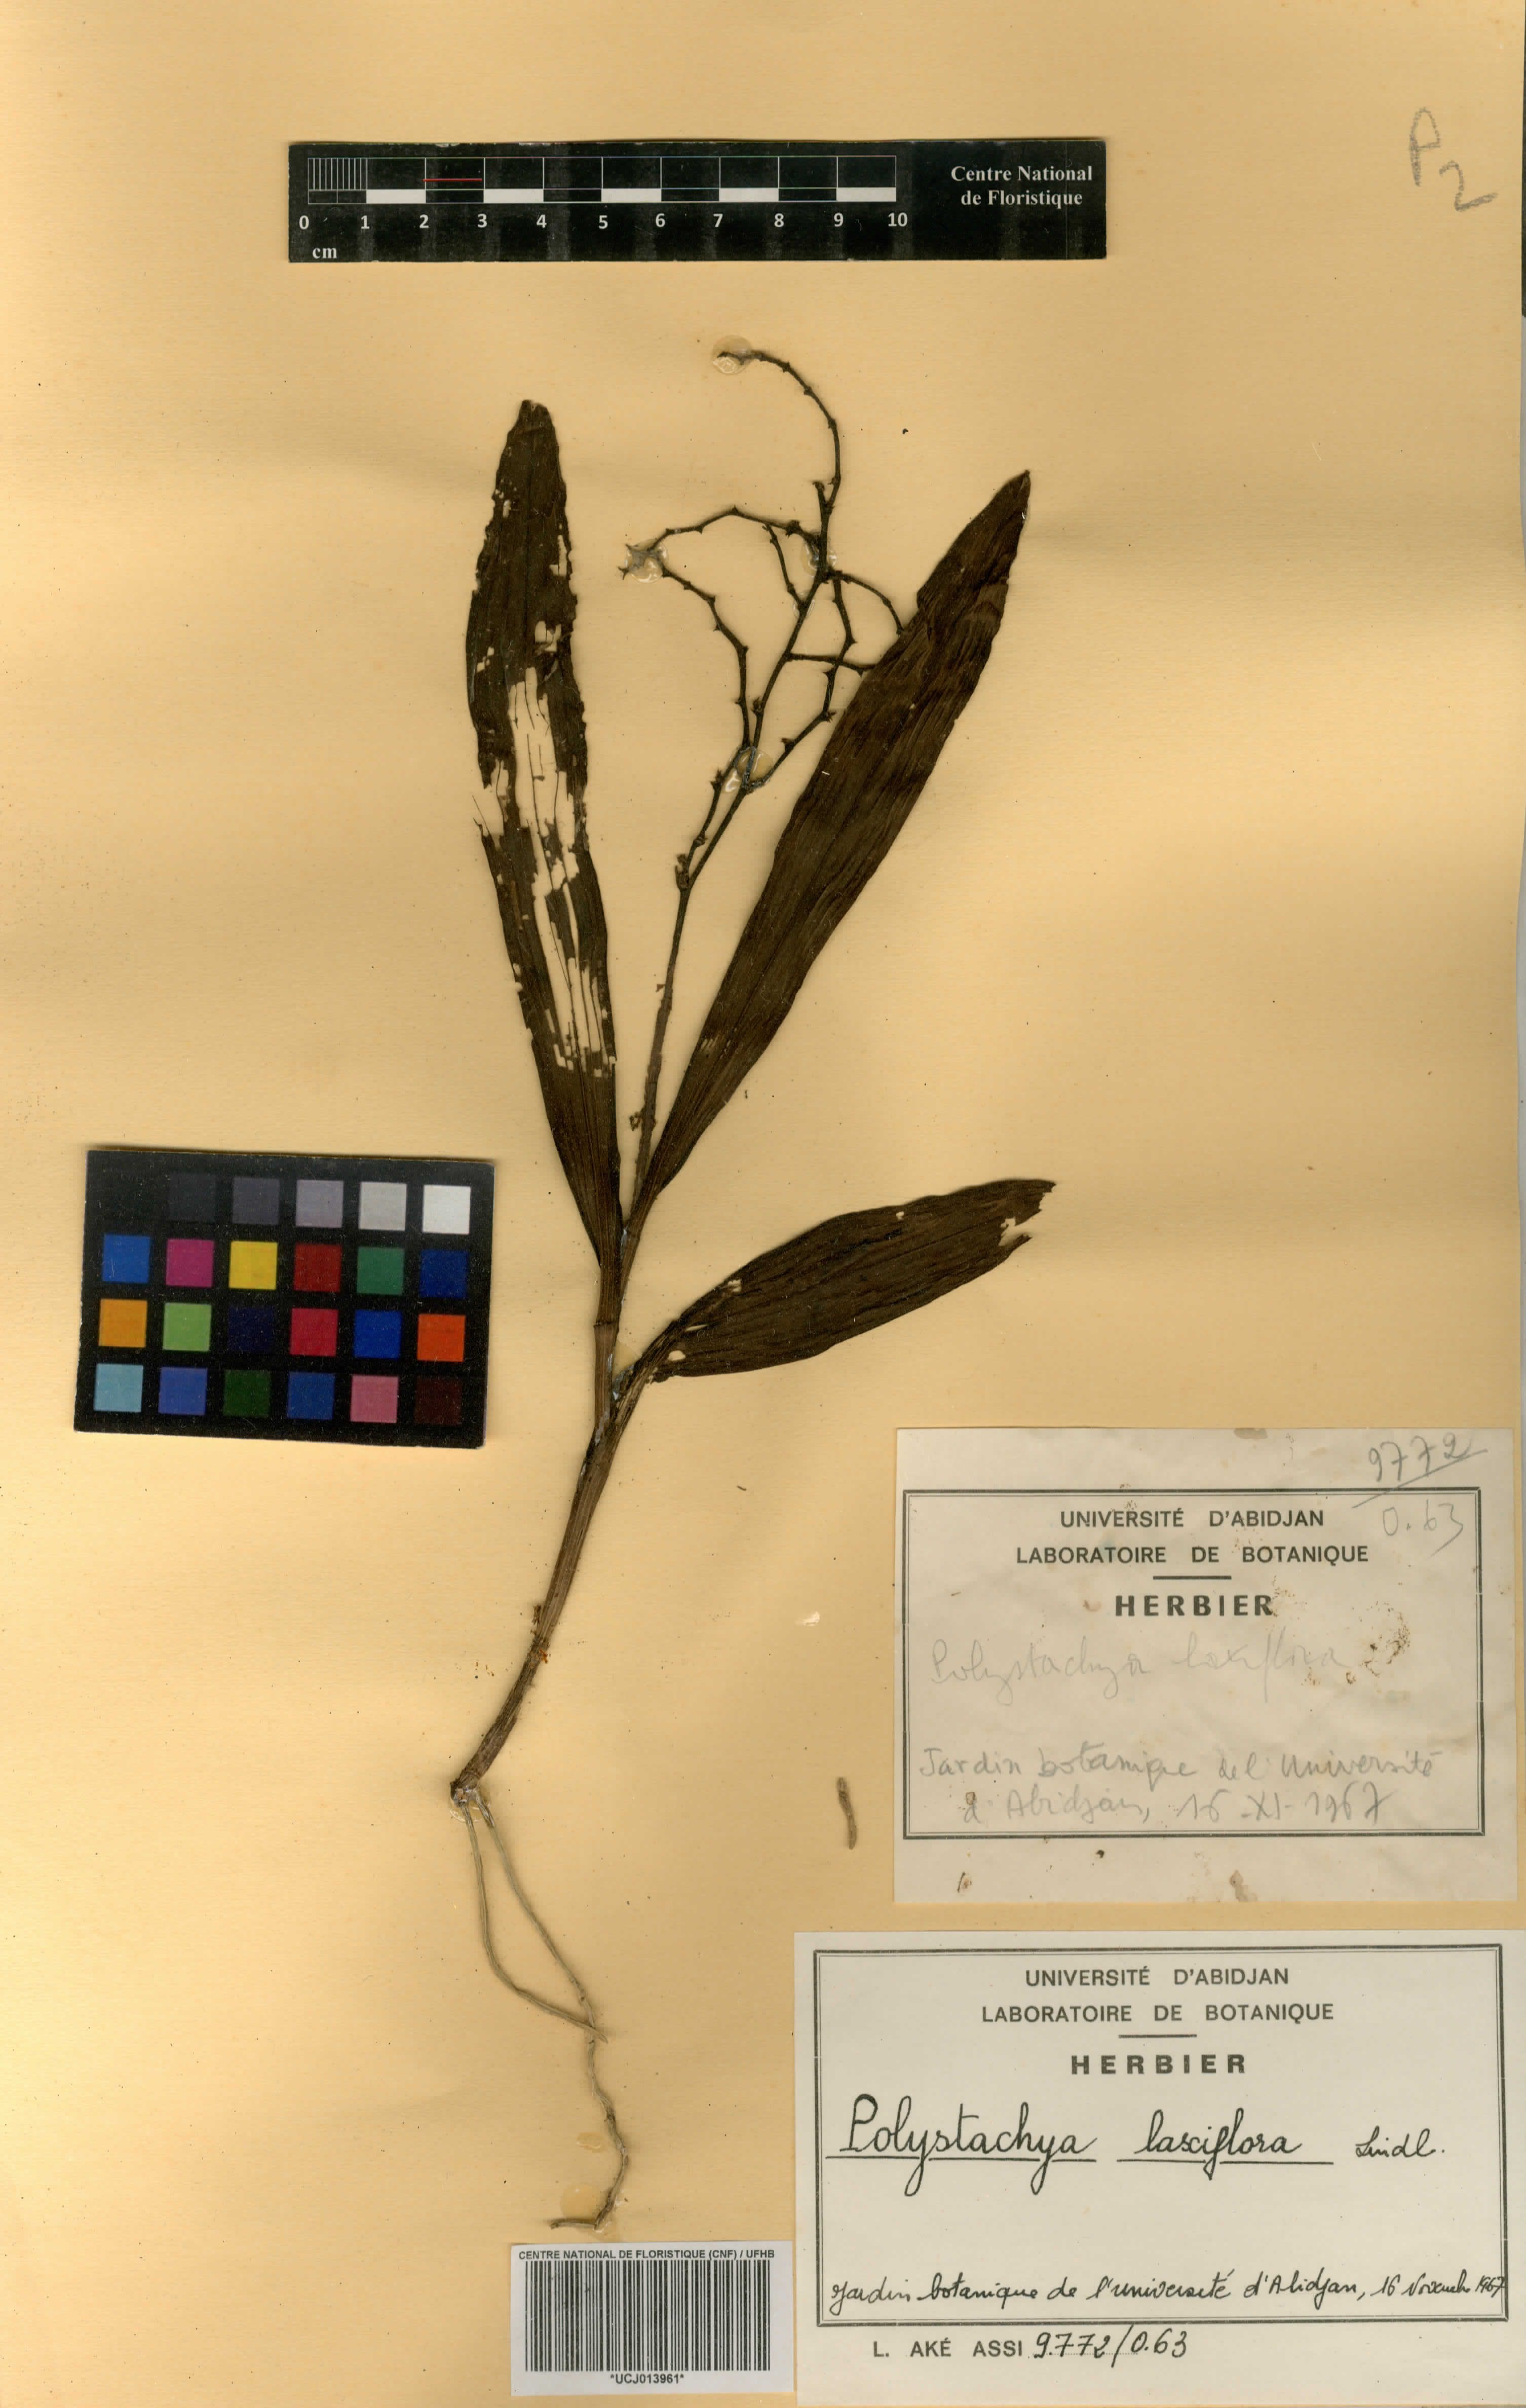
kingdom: Plantae
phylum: Tracheophyta
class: Liliopsida
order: Asparagales
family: Orchidaceae
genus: Polystachya
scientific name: Polystachya laxiflora
